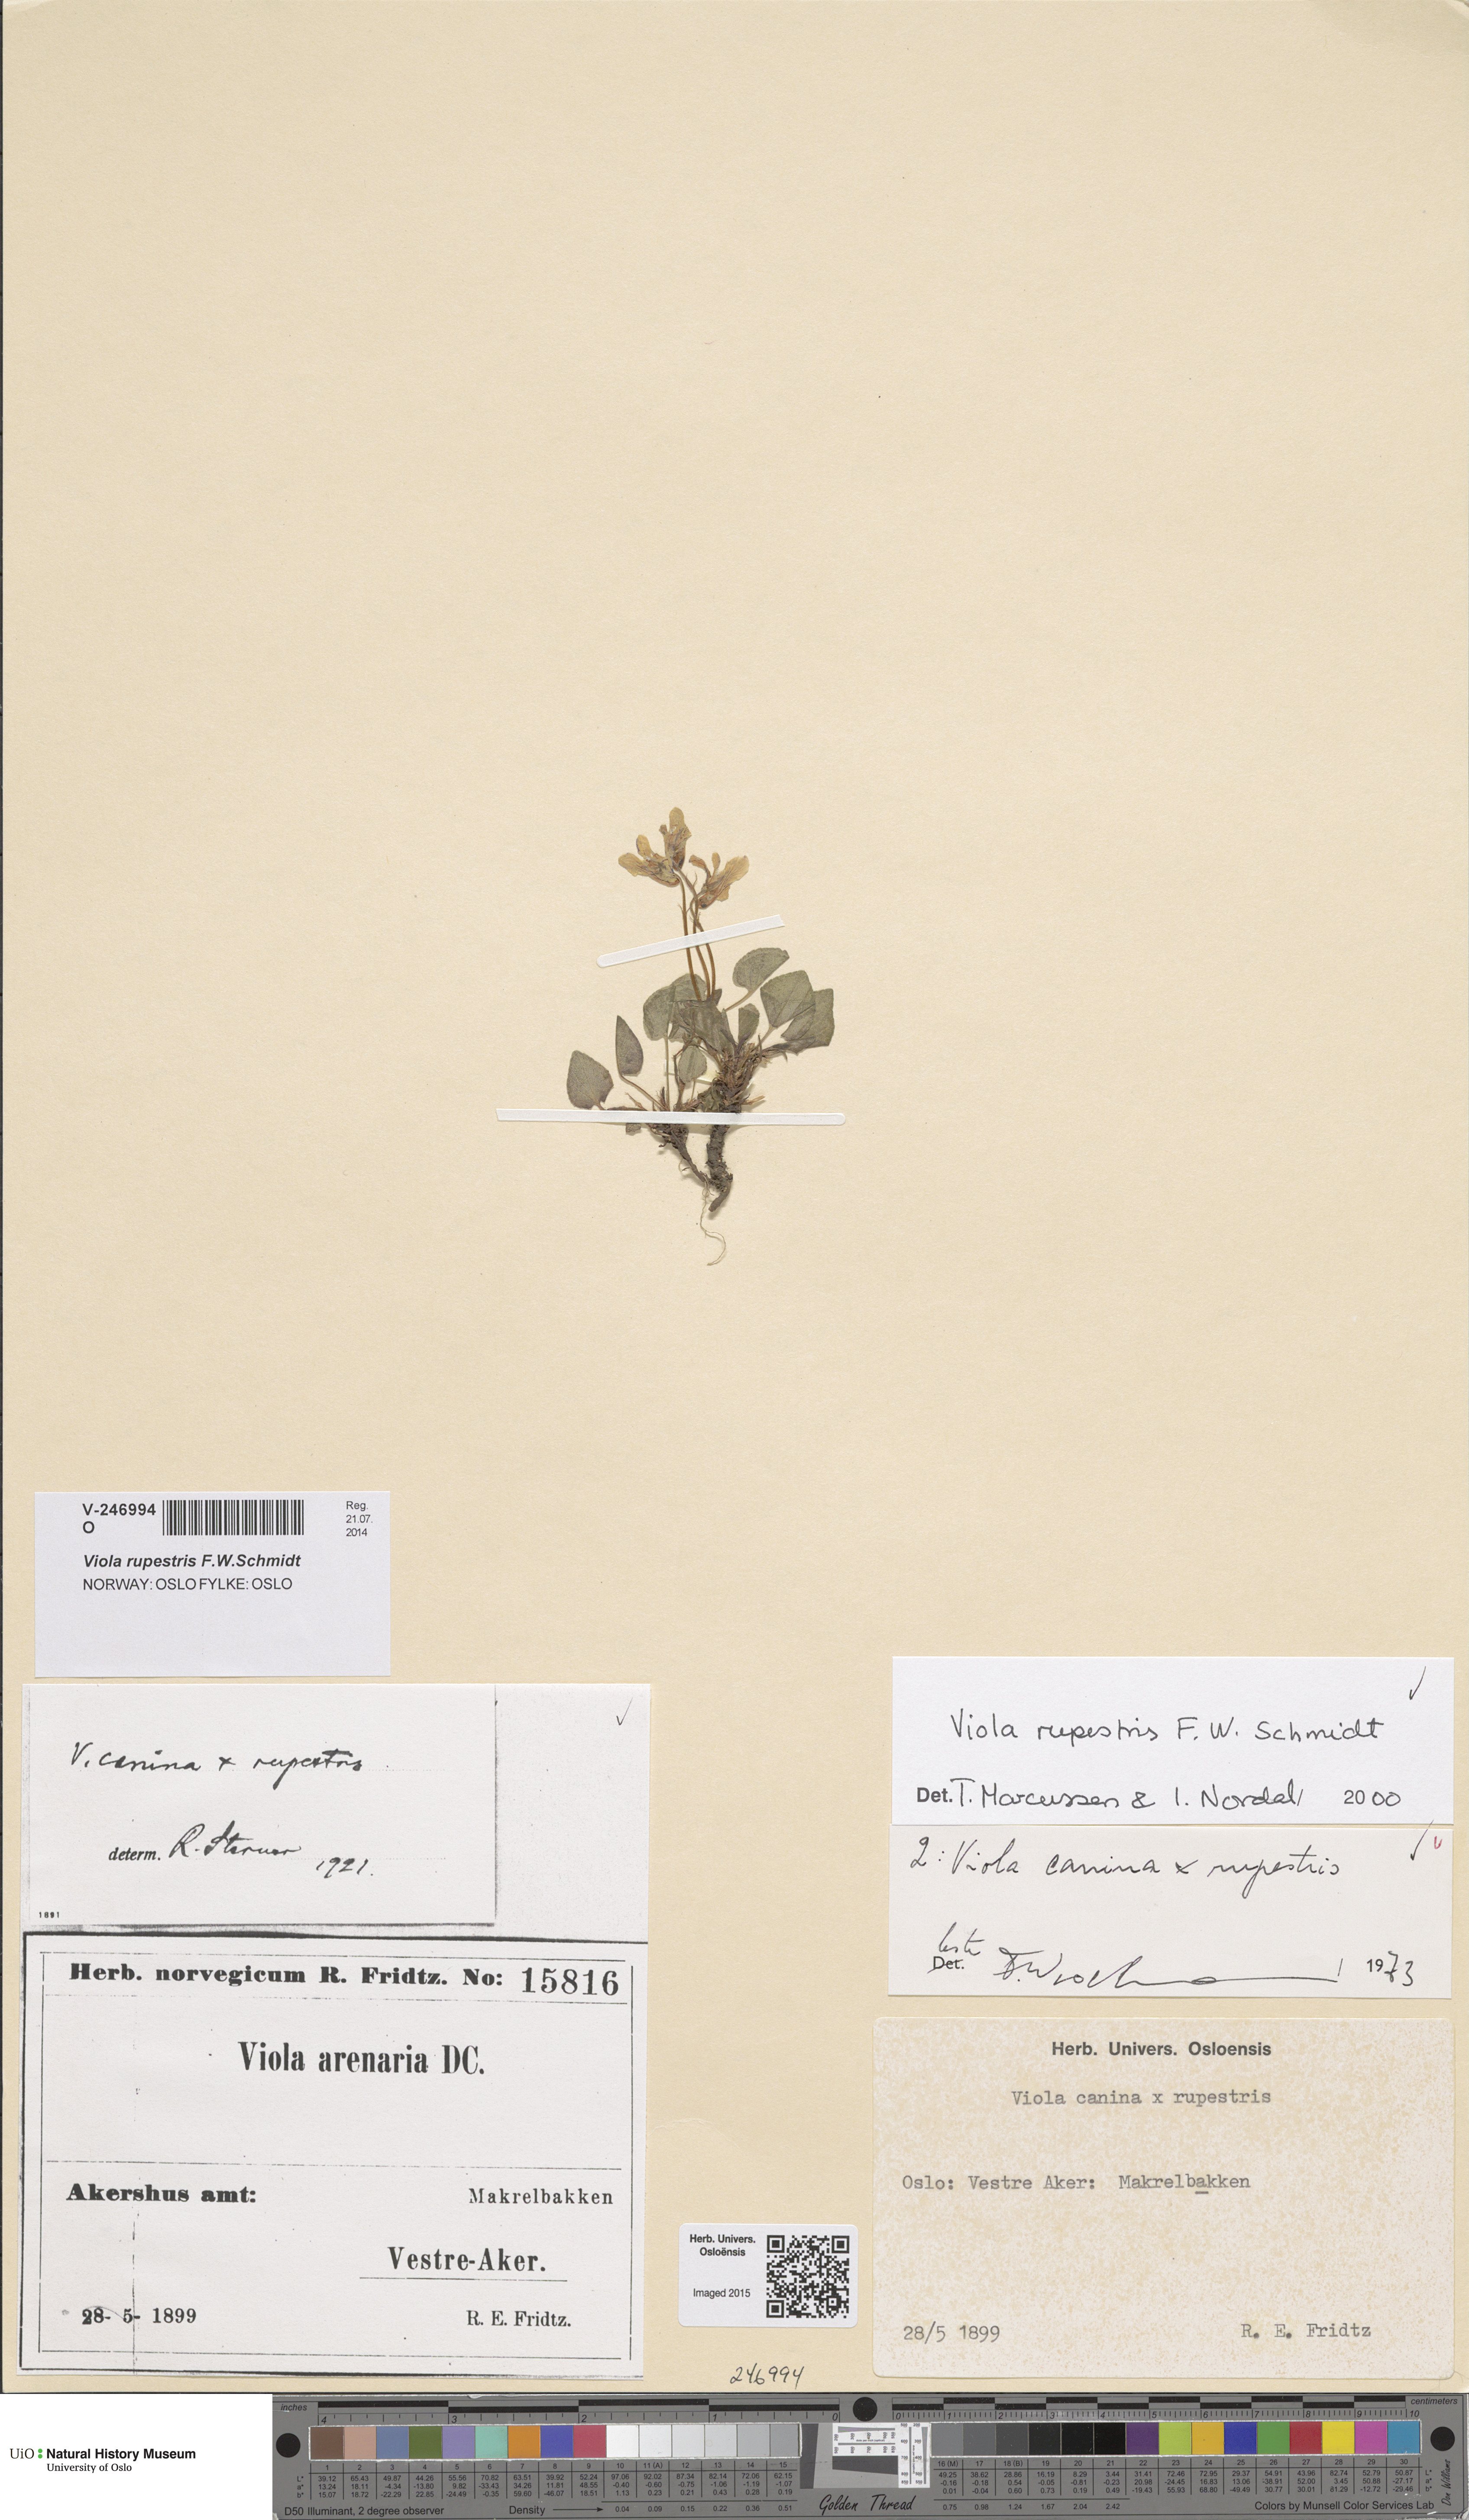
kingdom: Plantae
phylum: Tracheophyta
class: Magnoliopsida
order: Malpighiales
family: Violaceae
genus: Viola
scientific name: Viola rupestris
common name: Teesdale violet
